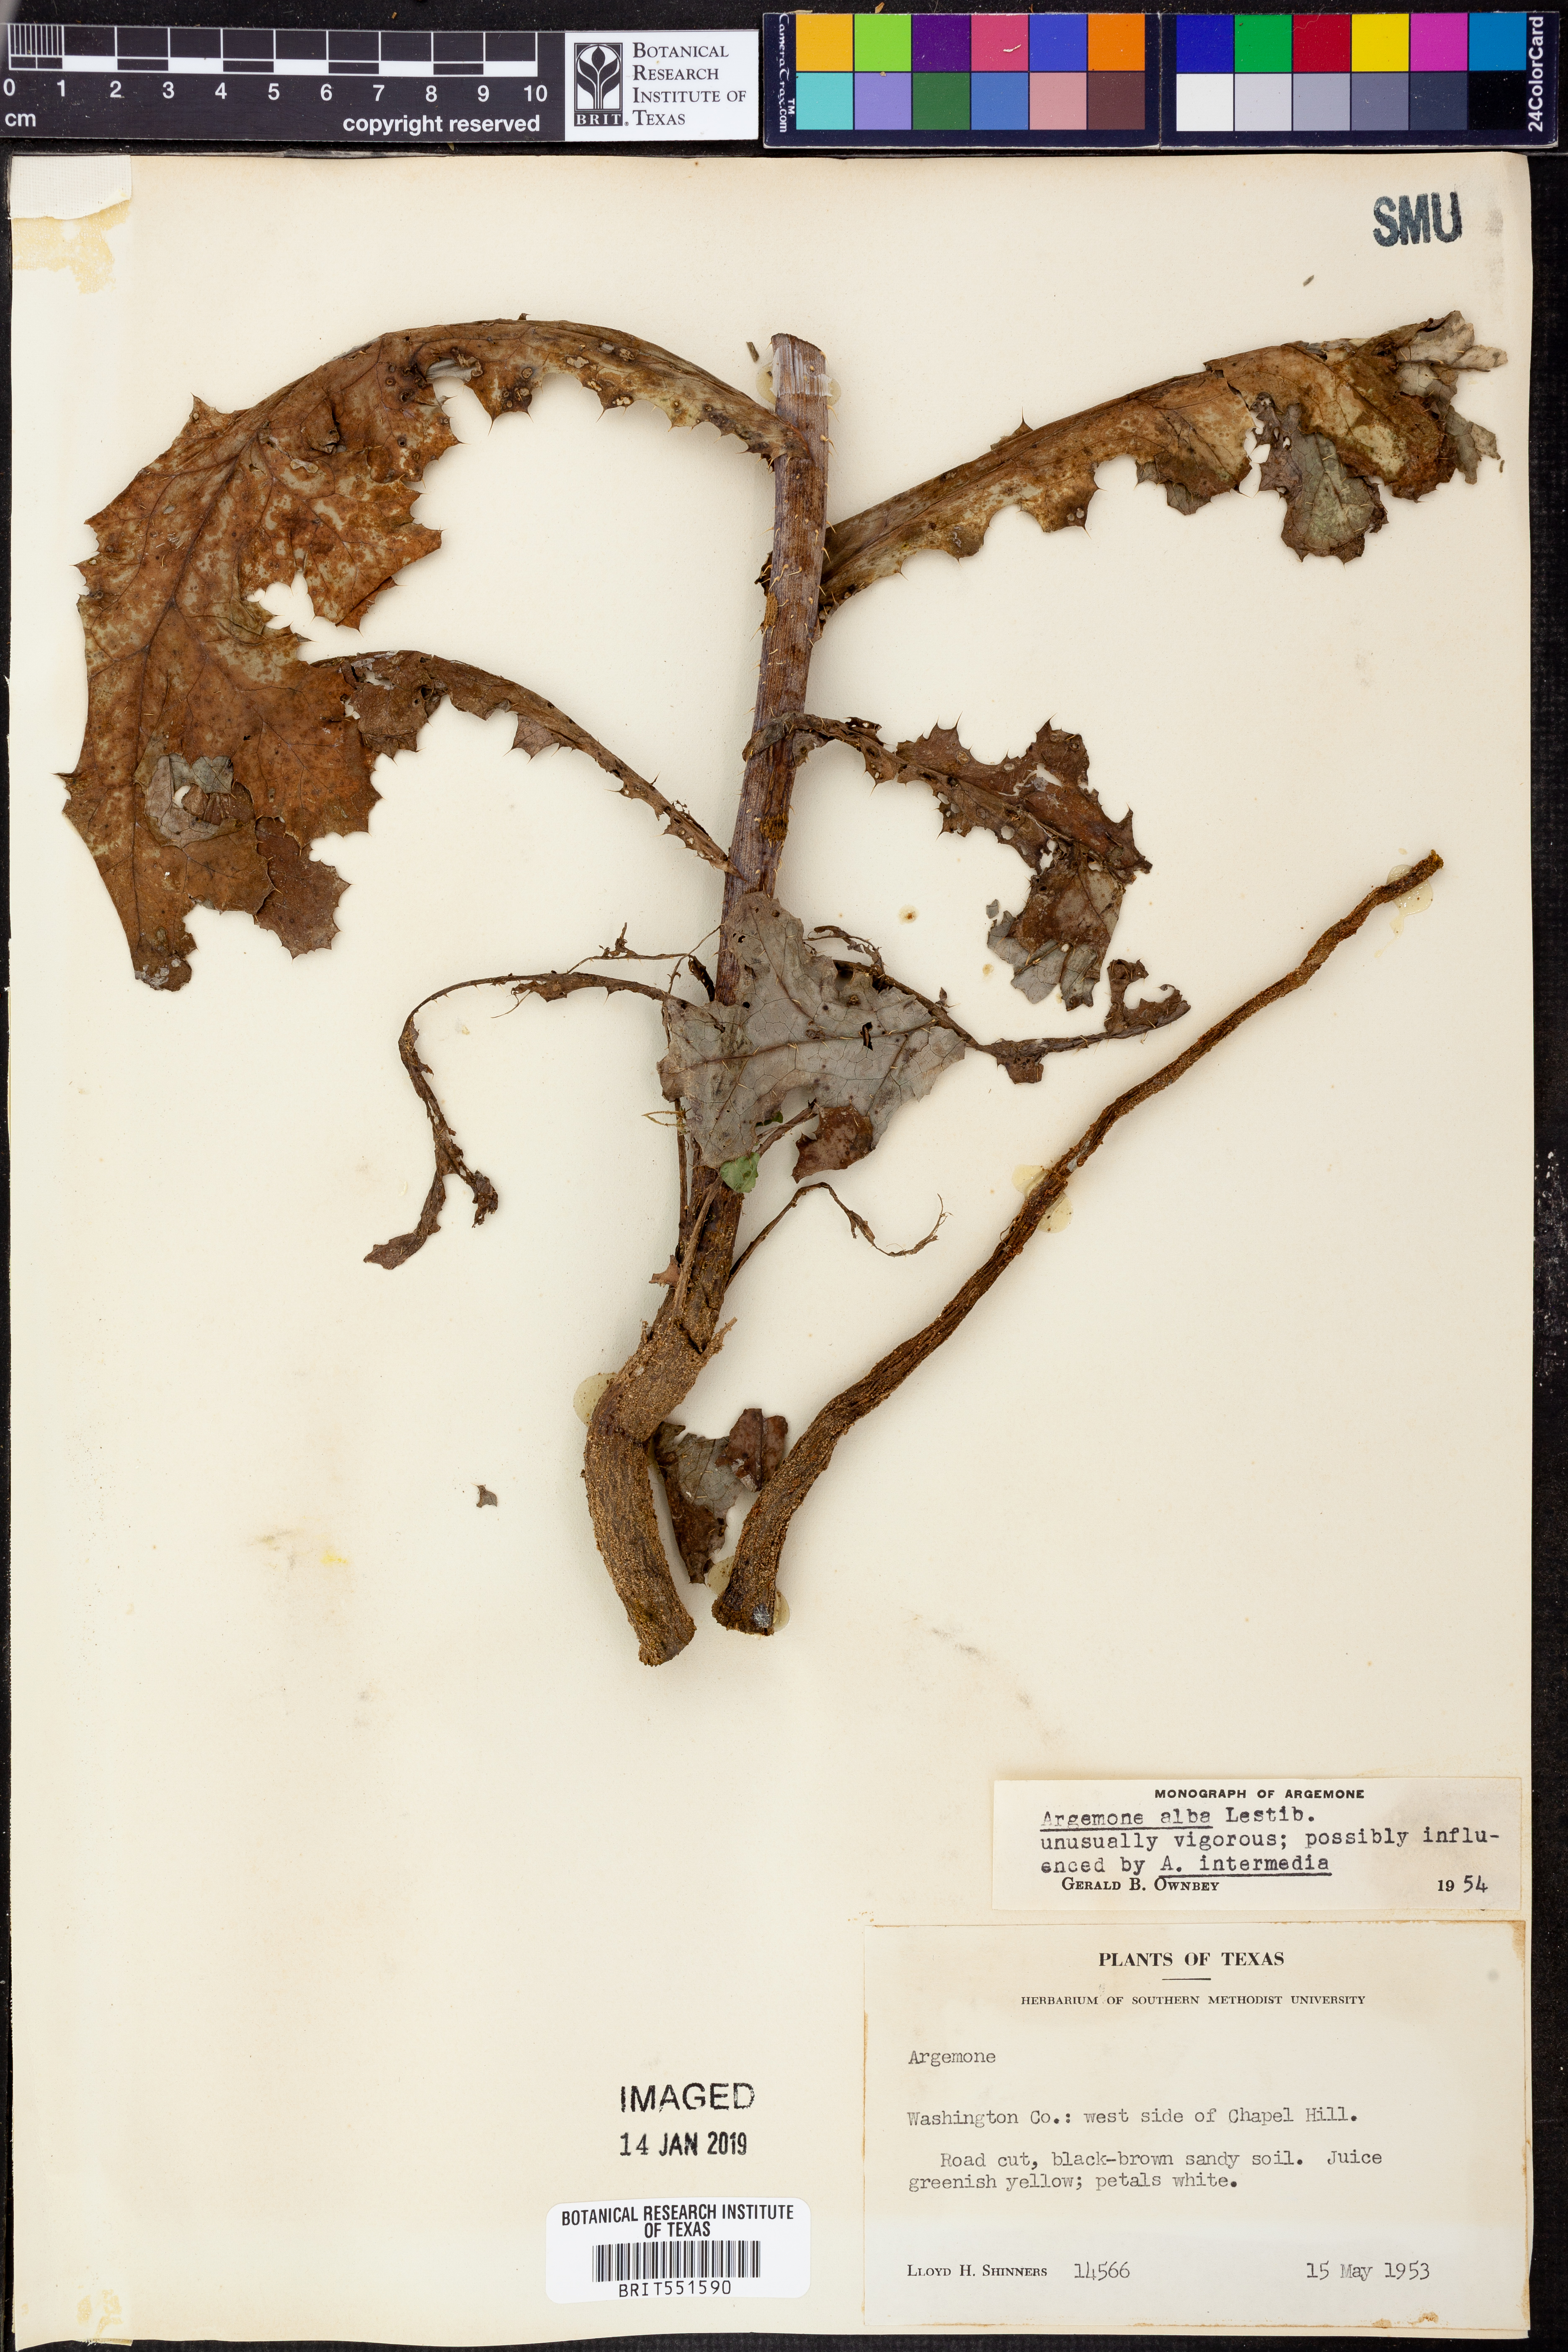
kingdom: Plantae
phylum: Tracheophyta
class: Magnoliopsida
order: Ranunculales
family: Papaveraceae
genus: Argemone
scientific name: Argemone albiflora
